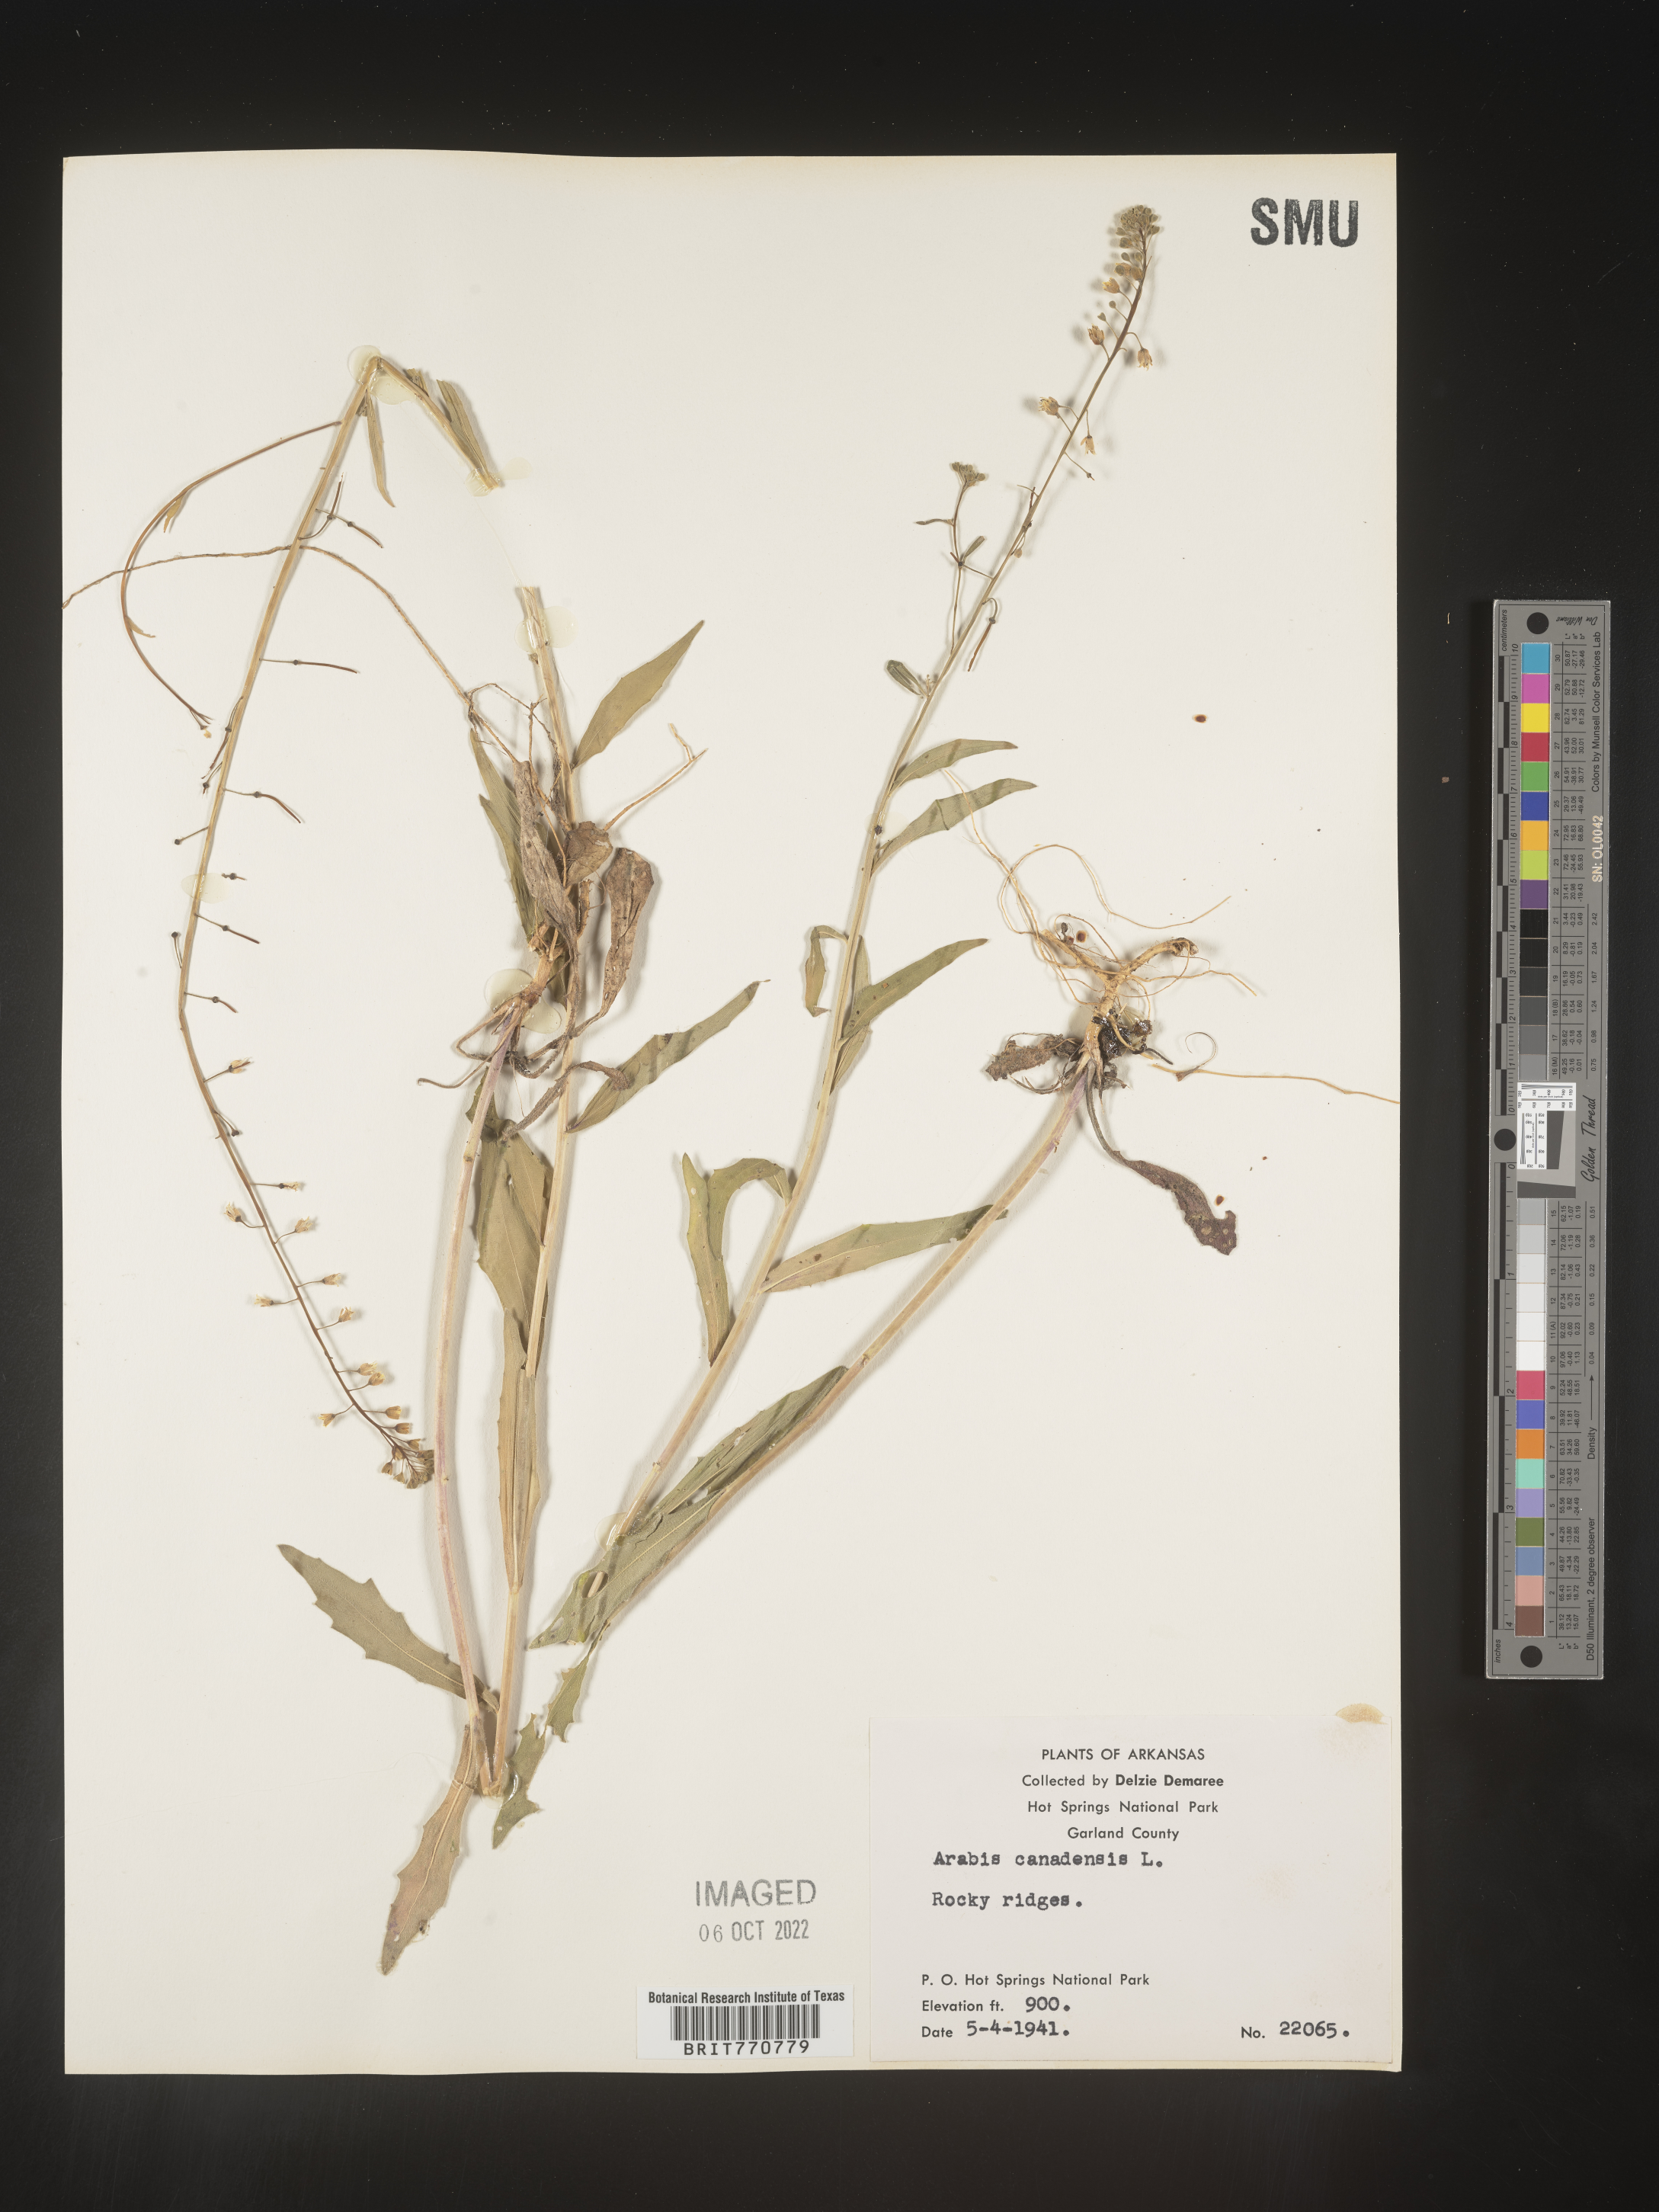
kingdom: Plantae
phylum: Tracheophyta
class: Magnoliopsida
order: Brassicales
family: Brassicaceae
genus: Borodinia
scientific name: Borodinia canadensis
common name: Sicklepod
